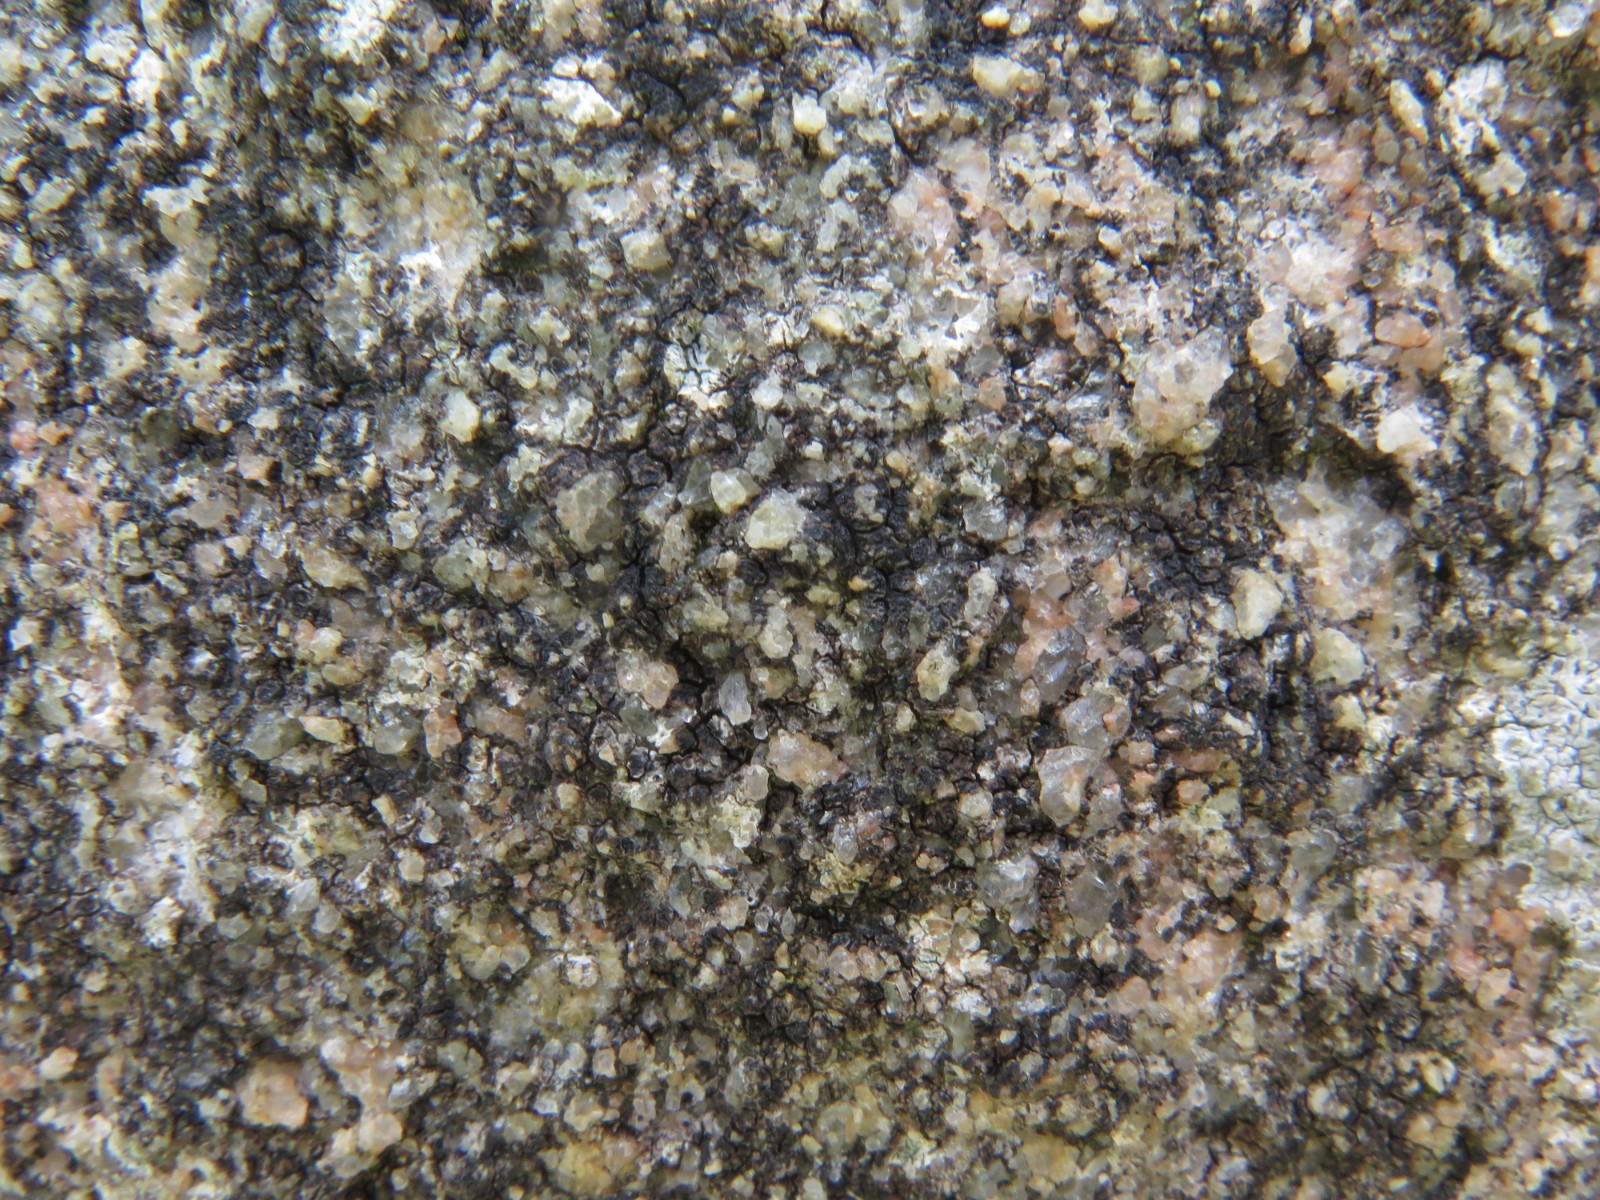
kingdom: Fungi
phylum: Ascomycota
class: Lecanoromycetes
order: Acarosporales
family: Acarosporaceae
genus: Acarospora
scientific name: Acarospora privigna
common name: sort foldekantlav
